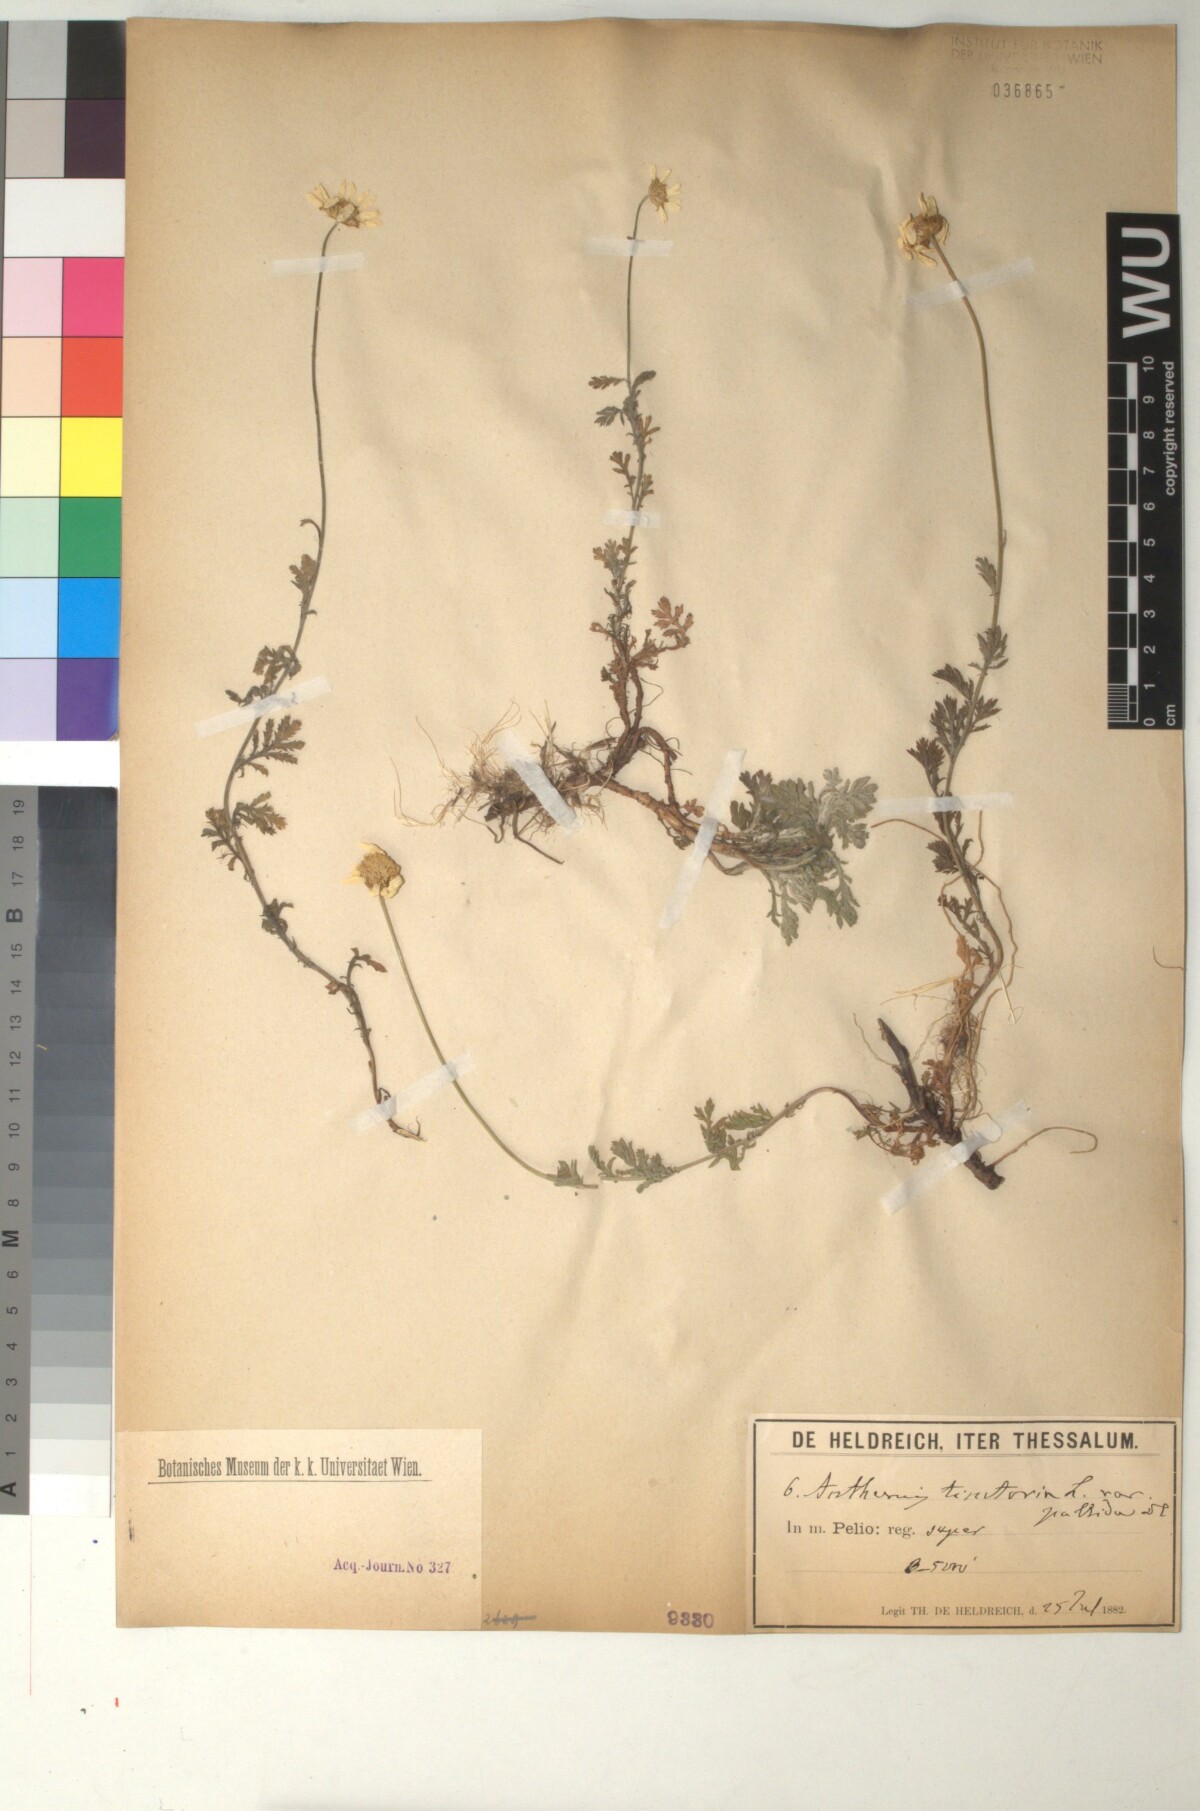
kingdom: Plantae
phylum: Tracheophyta
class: Magnoliopsida
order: Asterales
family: Asteraceae
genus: Cota
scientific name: Cota tinctoria
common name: Golden chamomile
